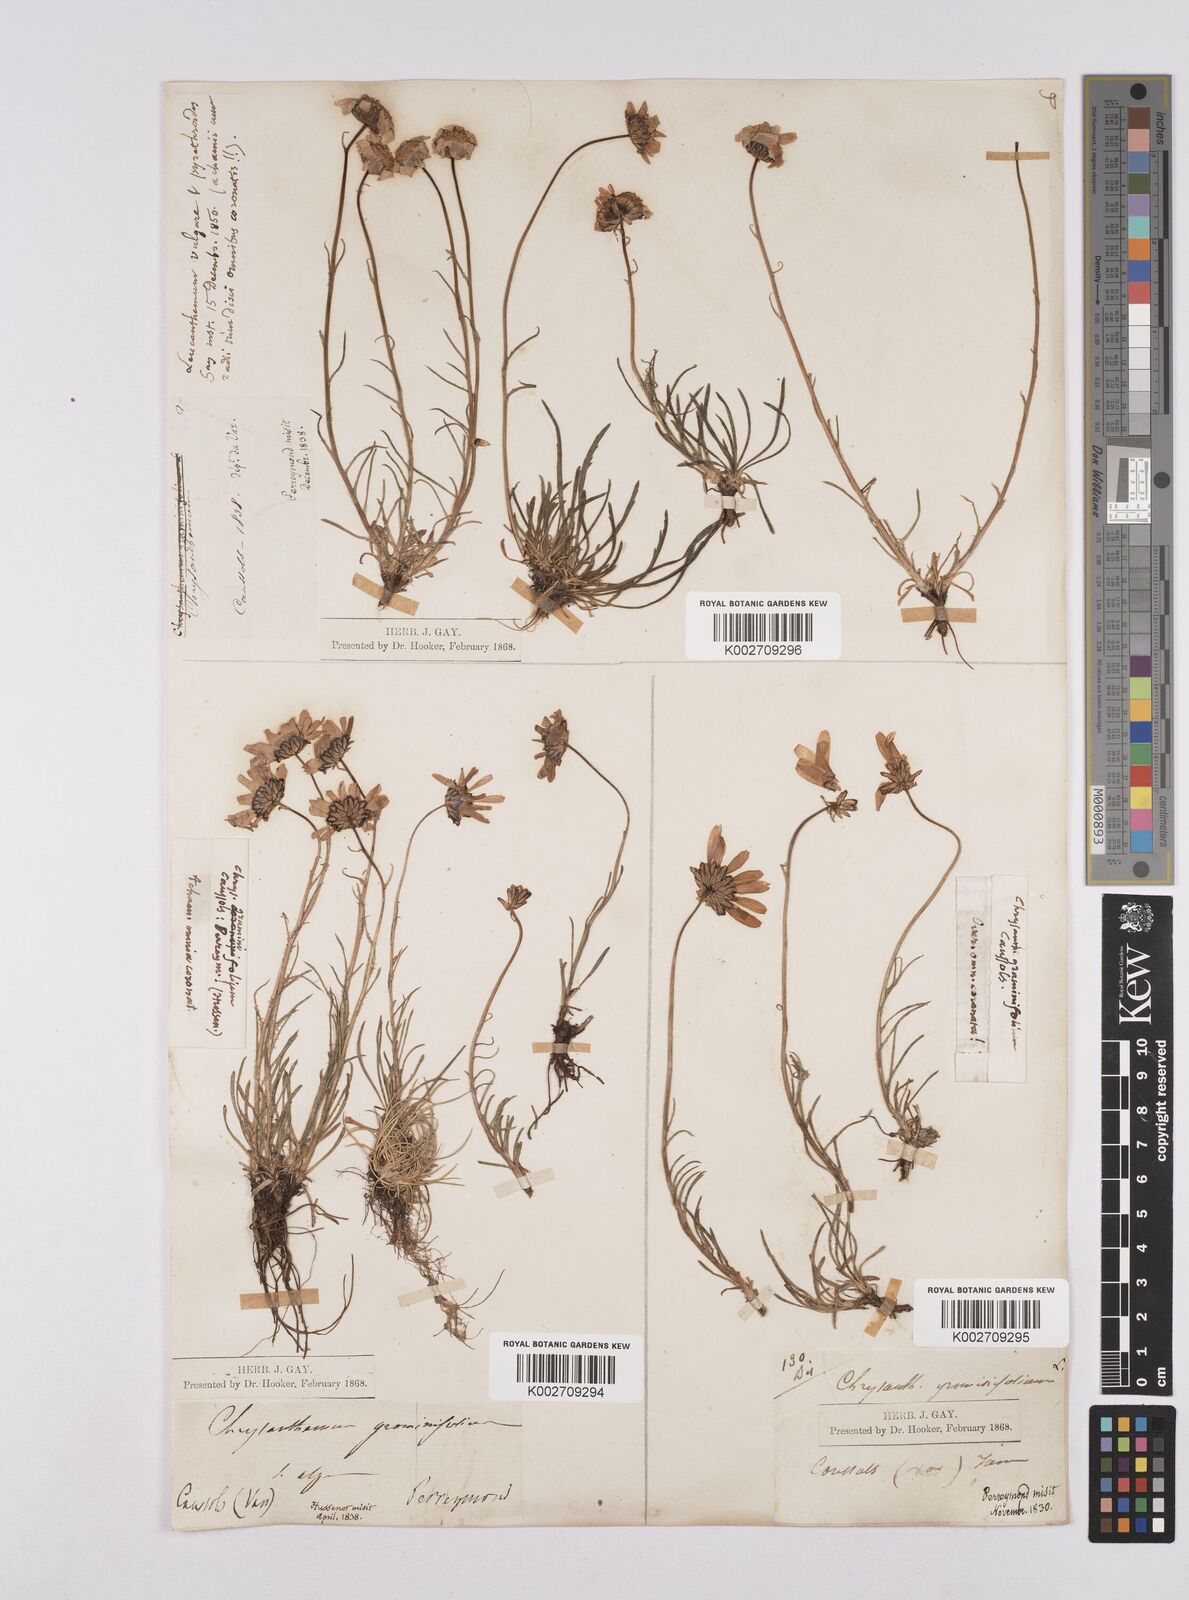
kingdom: Plantae
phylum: Tracheophyta
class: Magnoliopsida
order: Asterales
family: Asteraceae
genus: Leucanthemum
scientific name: Leucanthemum chloroticum
